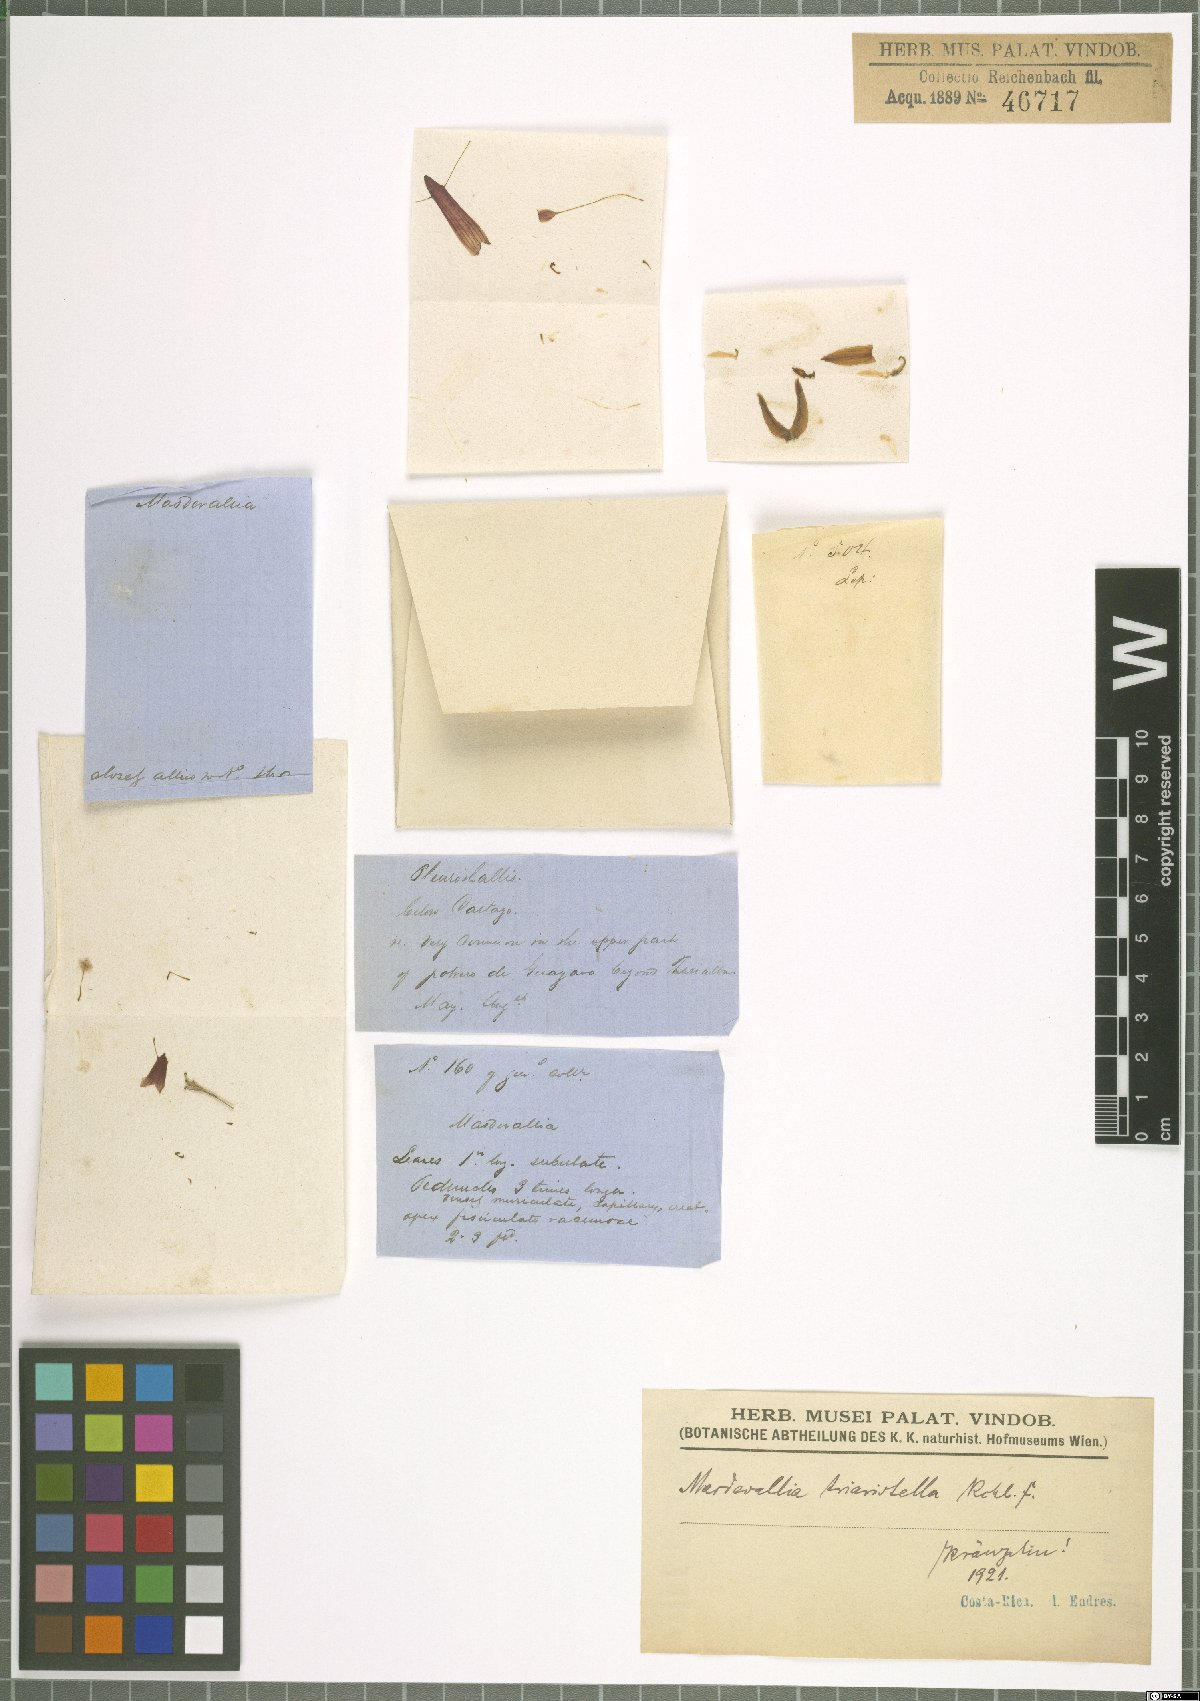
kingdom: Plantae
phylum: Tracheophyta
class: Liliopsida
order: Asparagales
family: Orchidaceae
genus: Trisetella
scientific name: Trisetella triaristella
